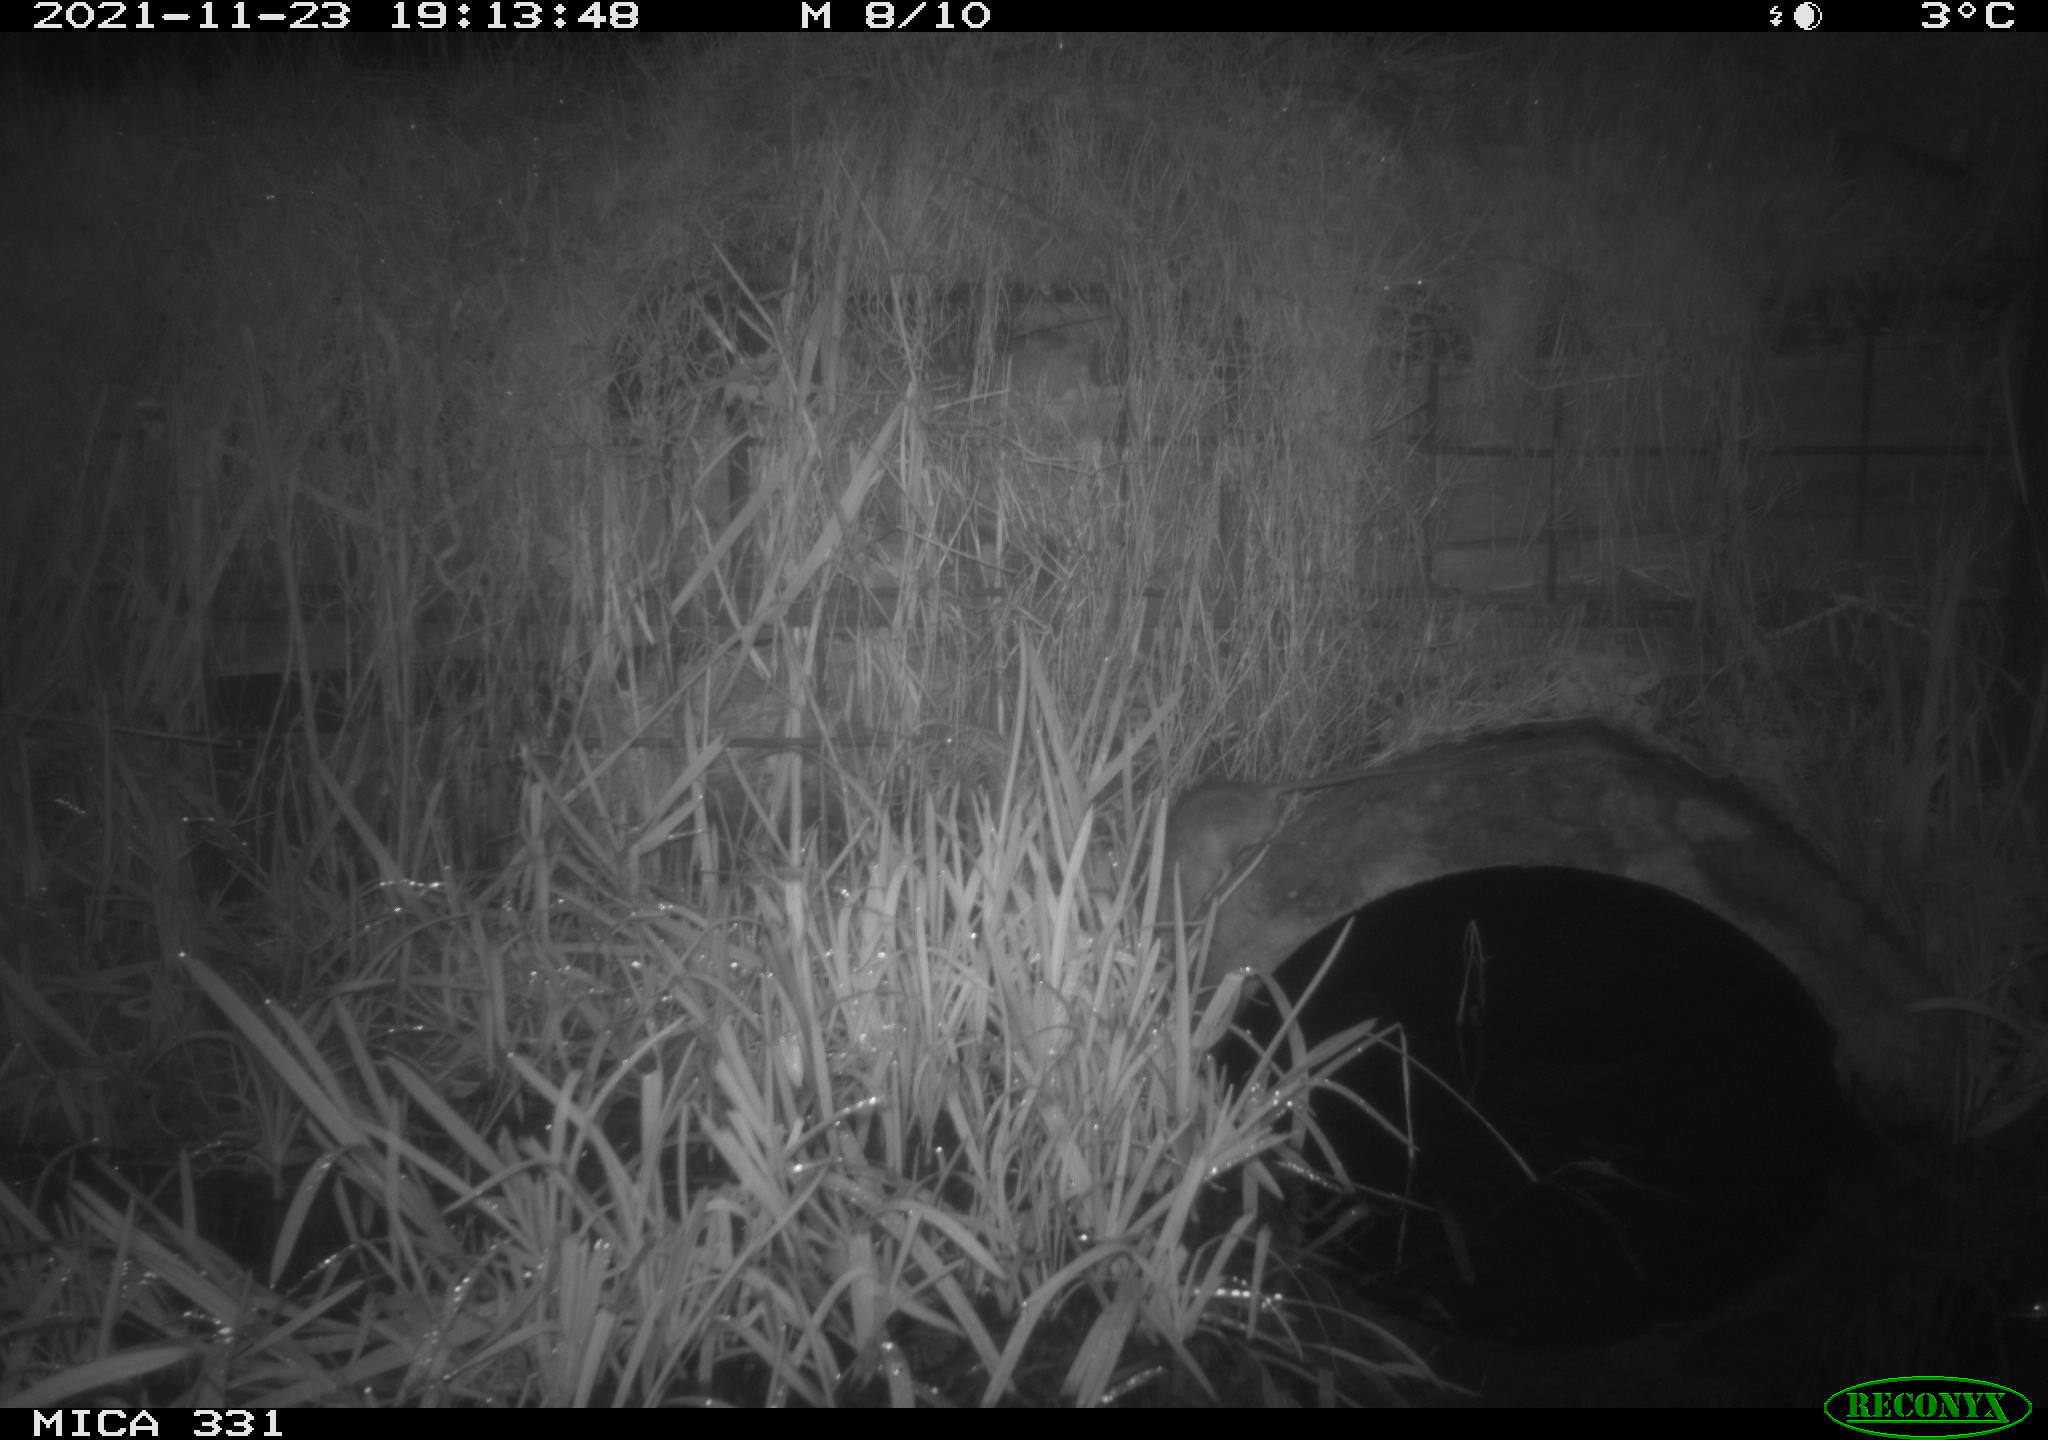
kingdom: Animalia
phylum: Chordata
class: Mammalia
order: Rodentia
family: Muridae
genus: Rattus
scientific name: Rattus norvegicus
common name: Brown rat
